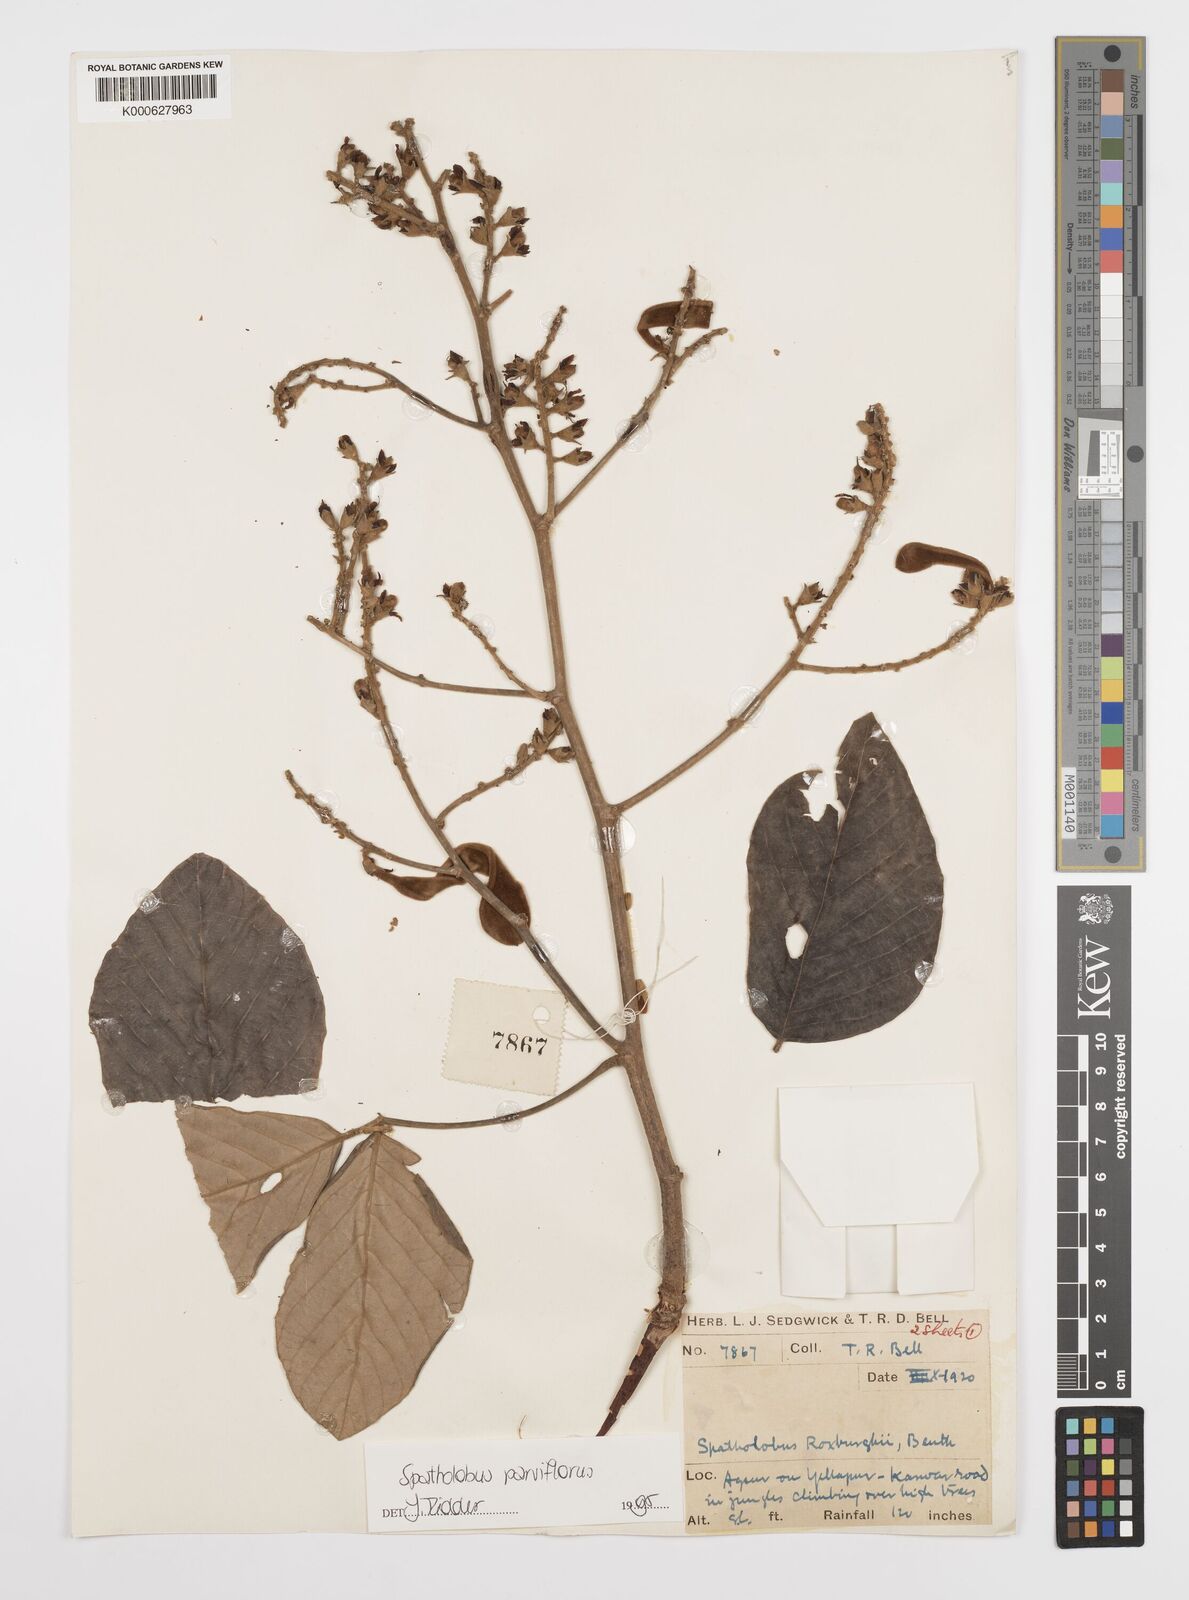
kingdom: Plantae
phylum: Tracheophyta
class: Magnoliopsida
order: Fabales
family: Fabaceae
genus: Spatholobus
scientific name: Spatholobus parviflorus
